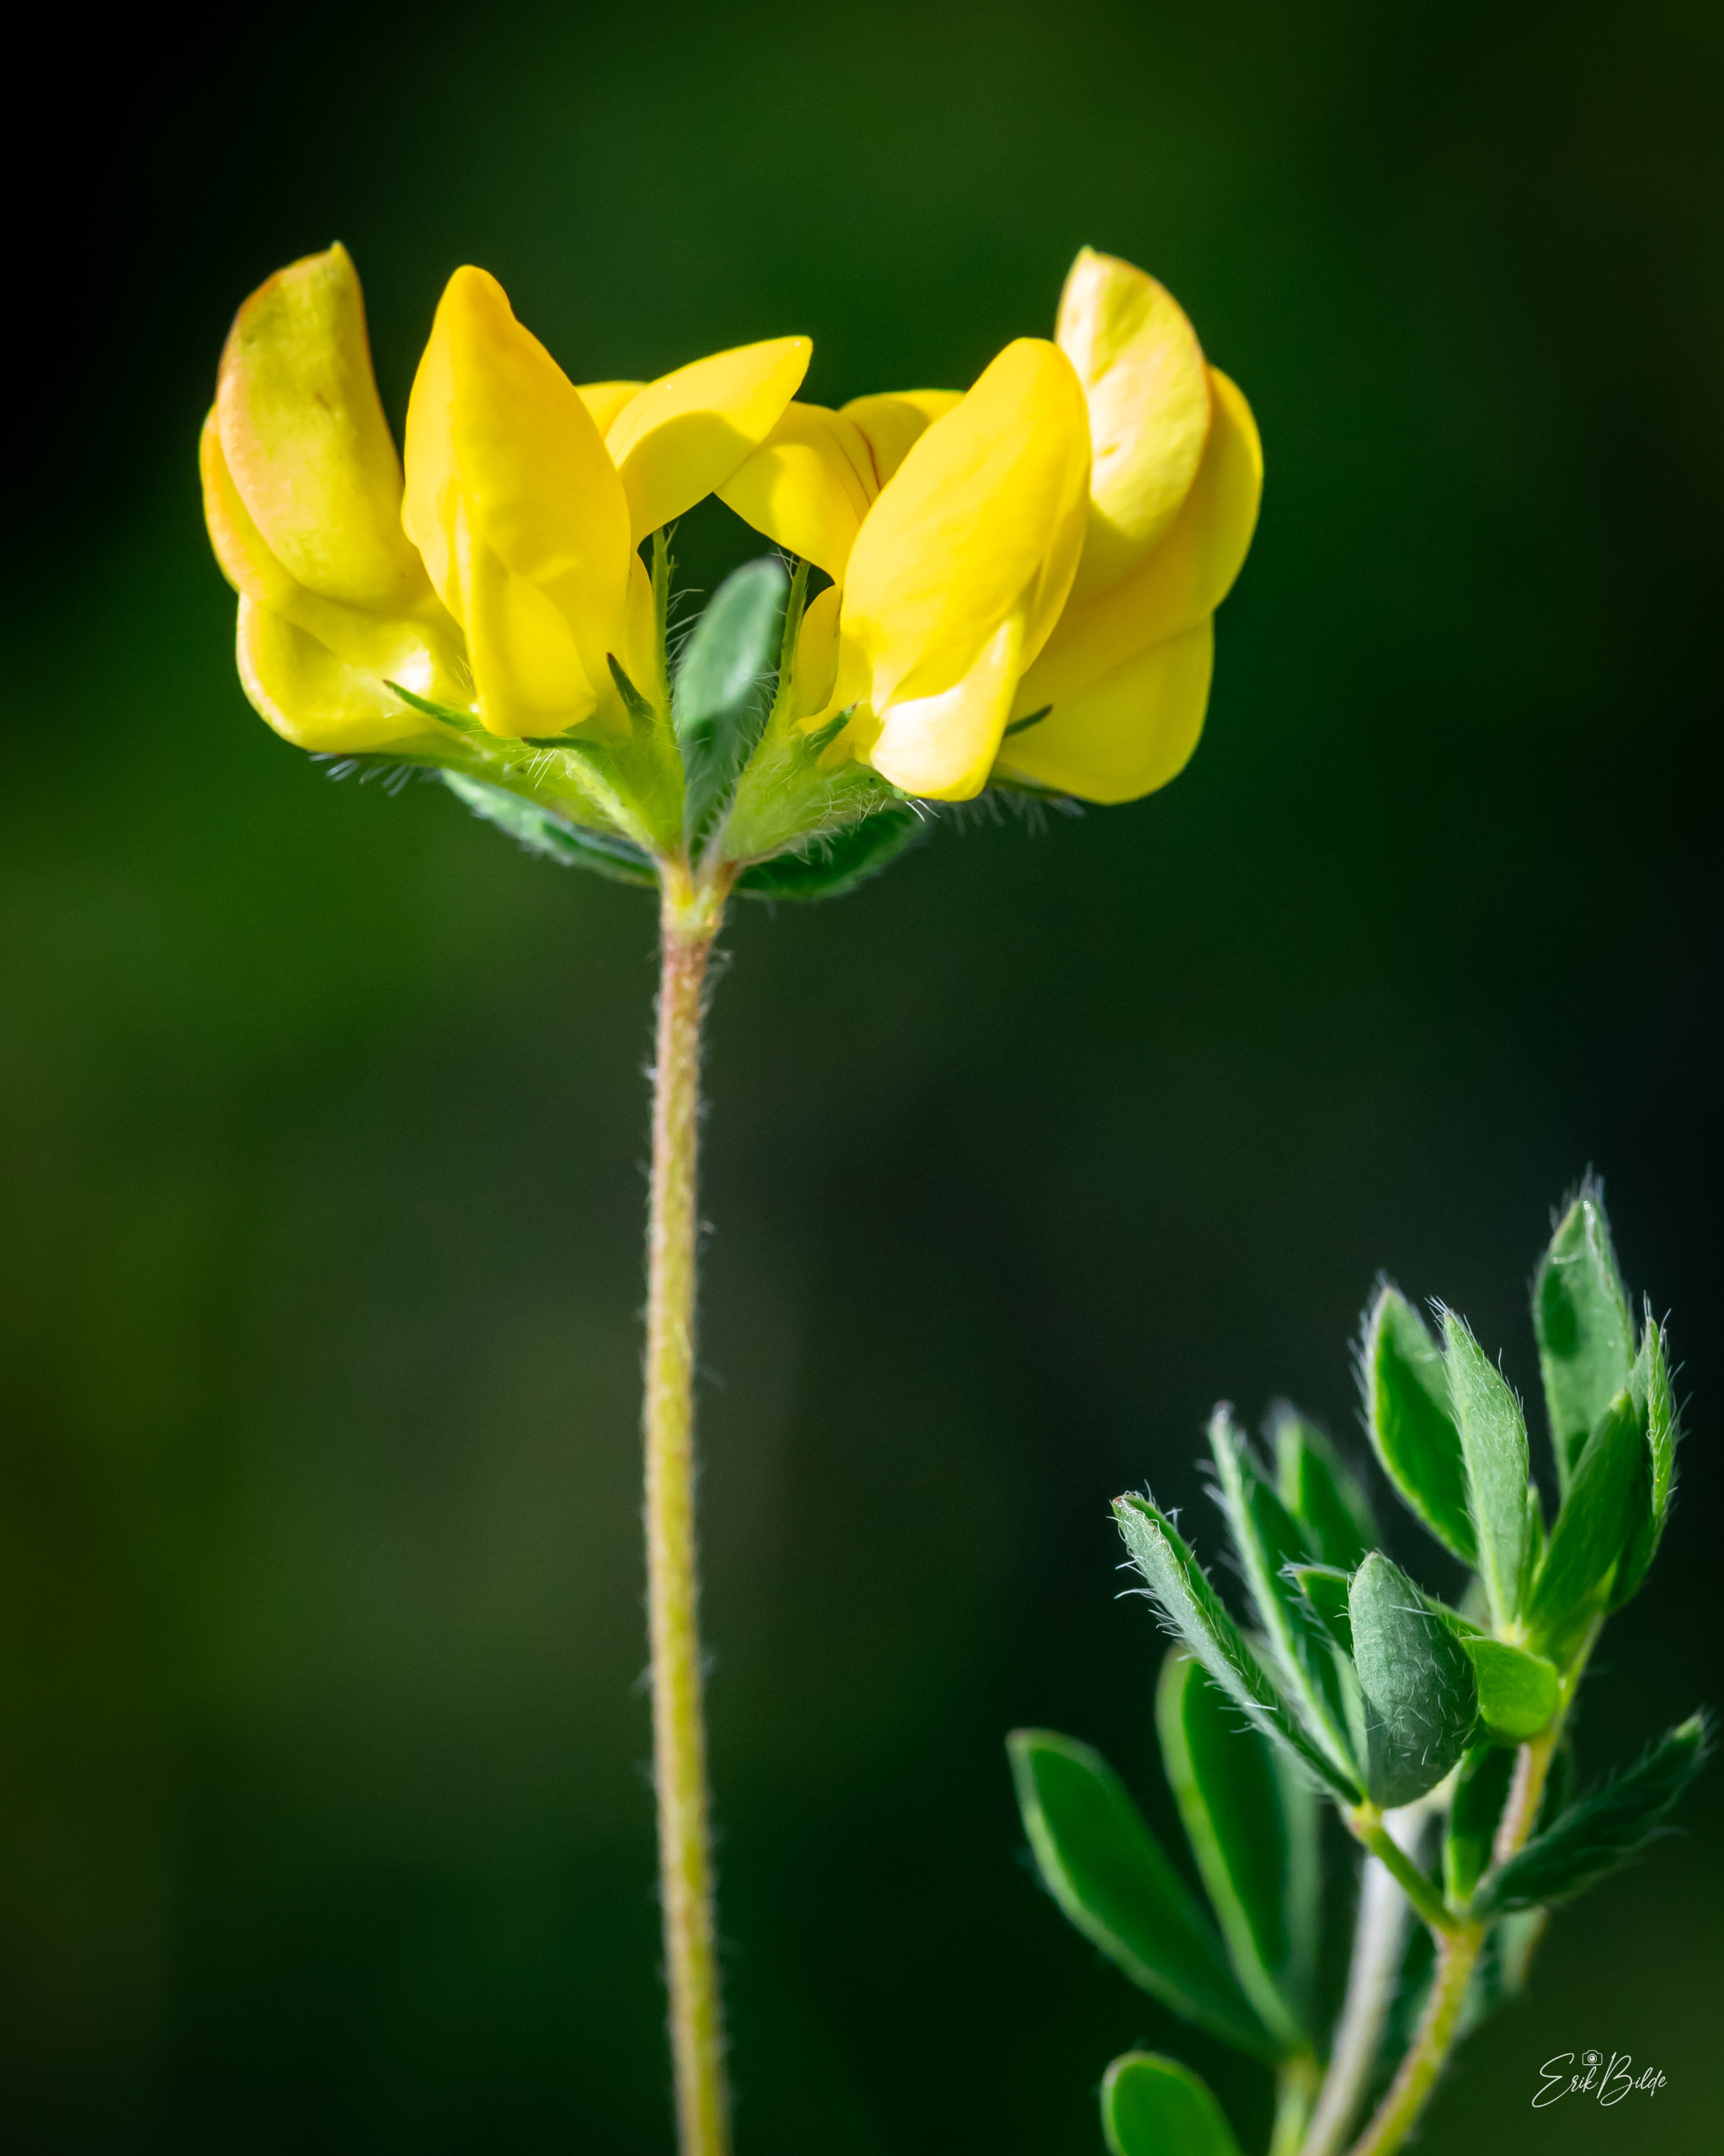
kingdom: Plantae
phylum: Tracheophyta
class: Magnoliopsida
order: Fabales
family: Fabaceae
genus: Lotus
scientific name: Lotus corniculatus
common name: Almindelig kællingetand
